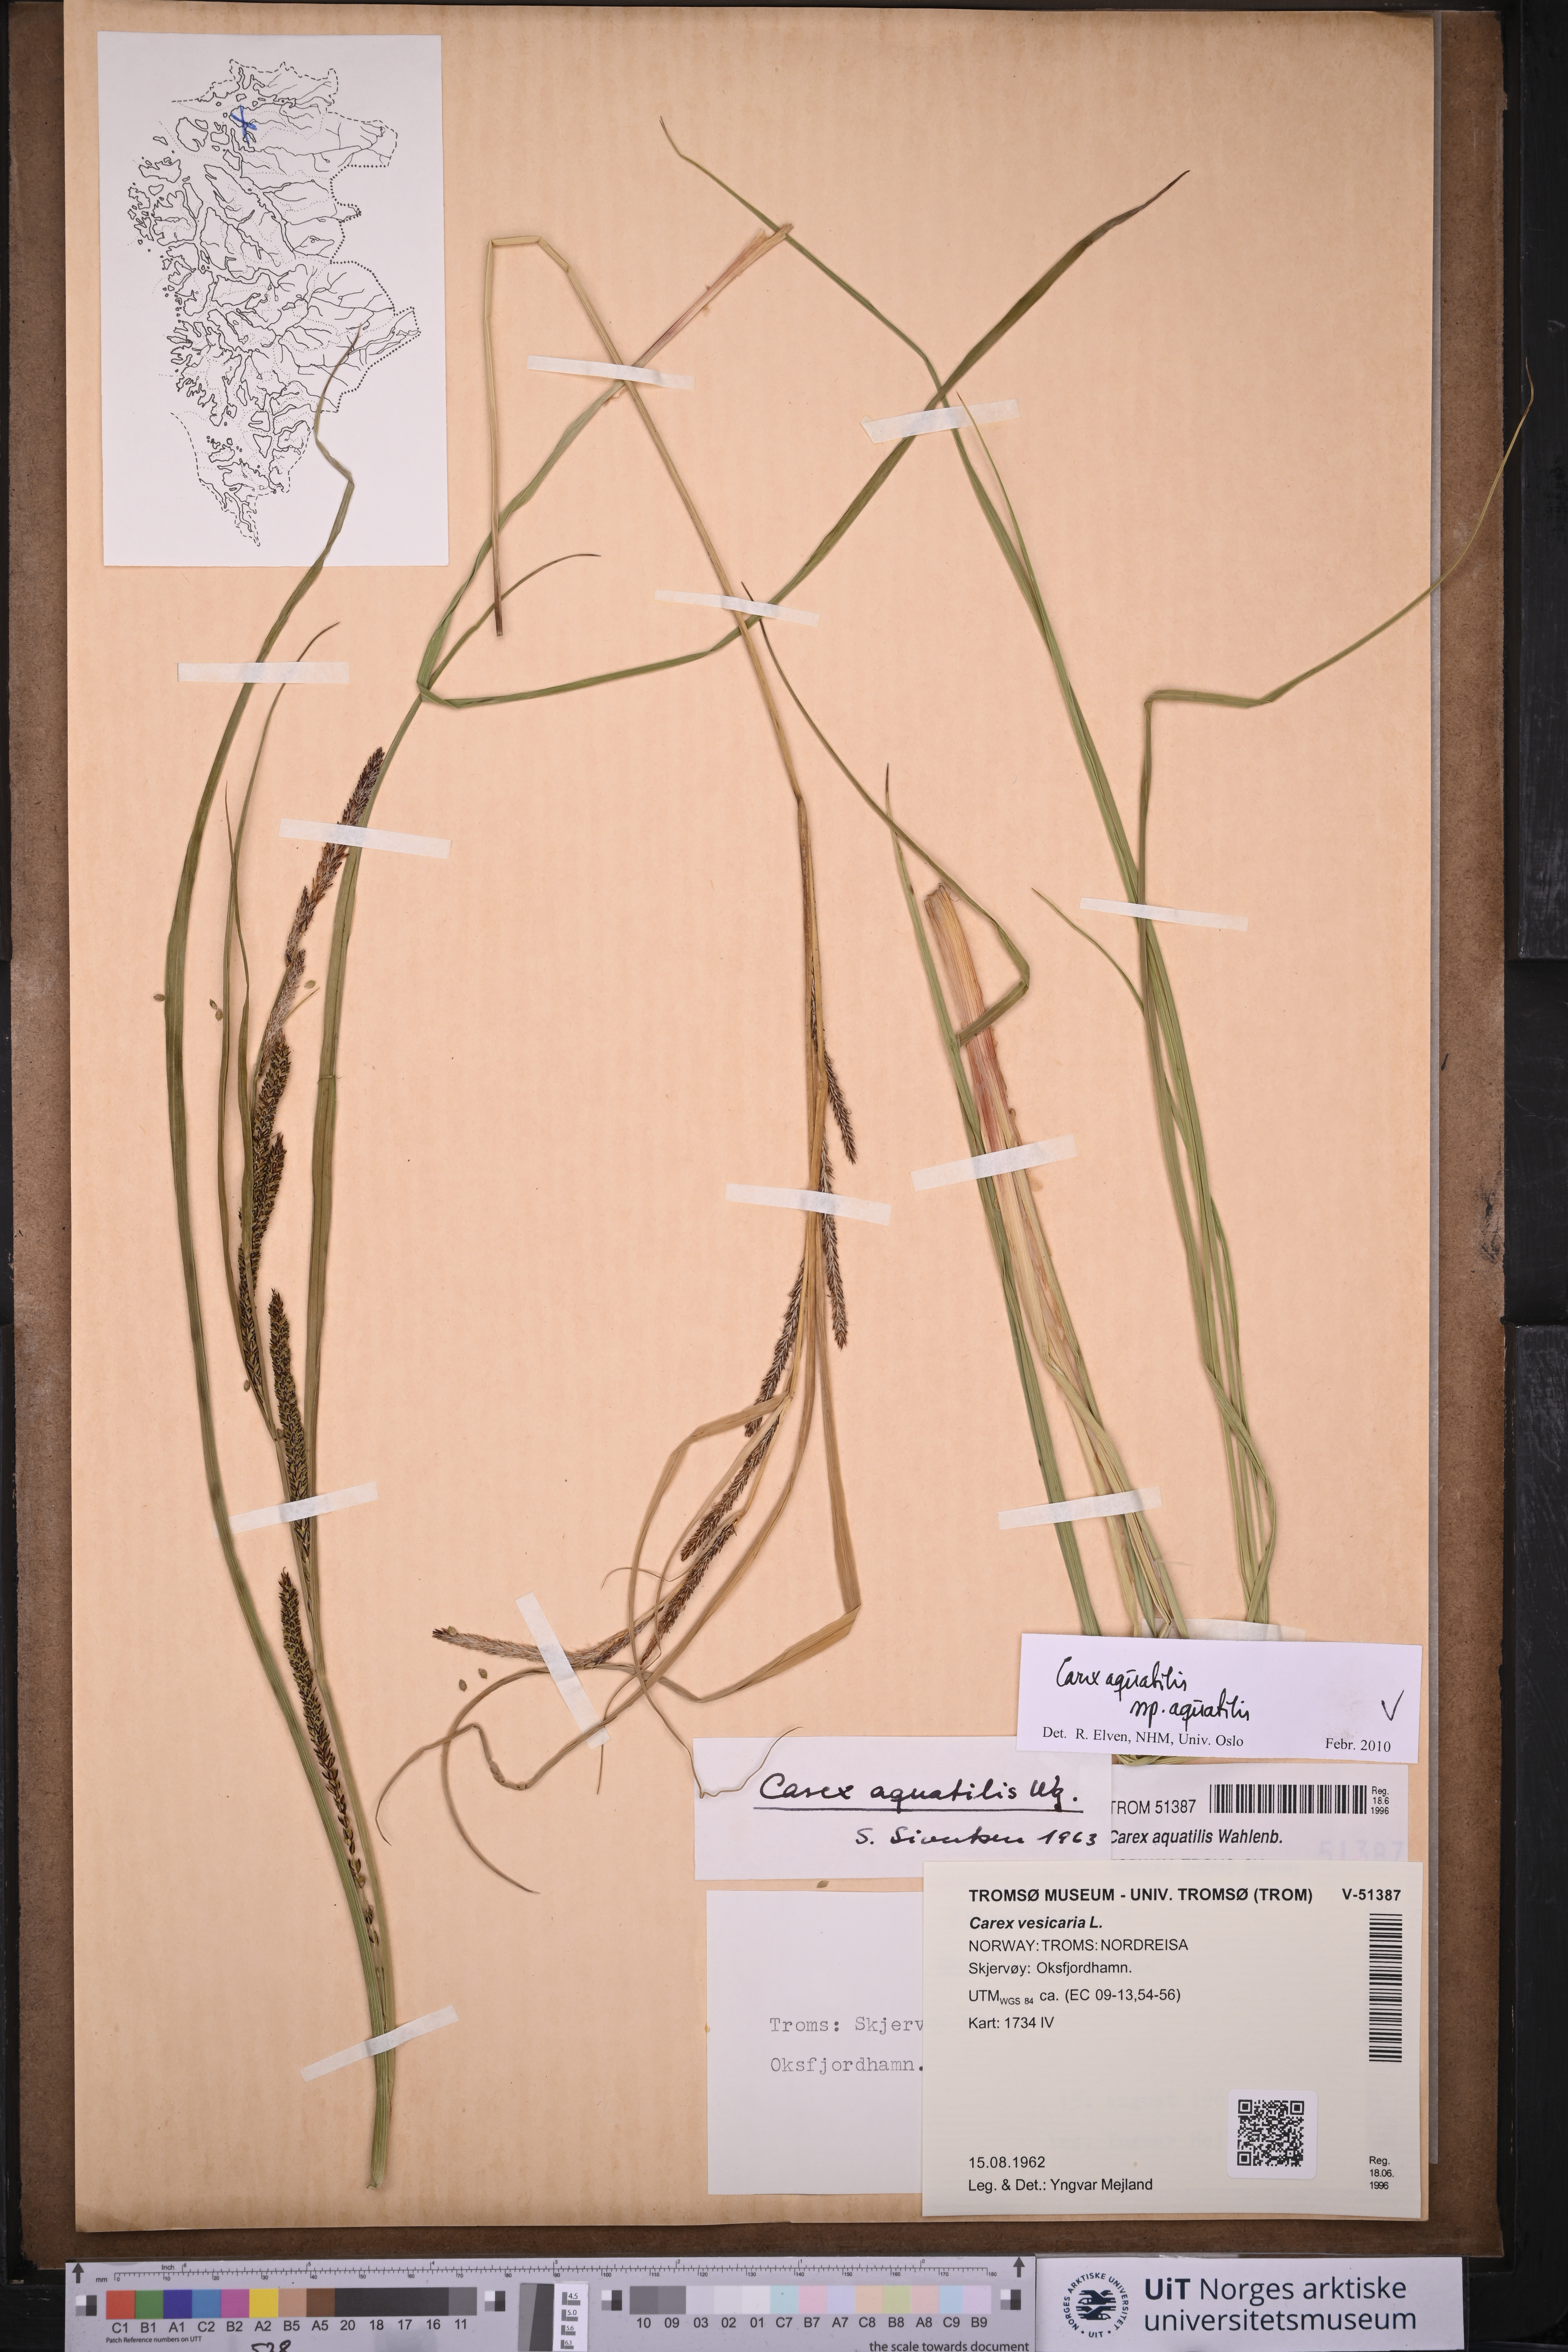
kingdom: Plantae
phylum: Tracheophyta
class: Liliopsida
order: Poales
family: Cyperaceae
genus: Carex
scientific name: Carex aquatilis
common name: Water sedge
